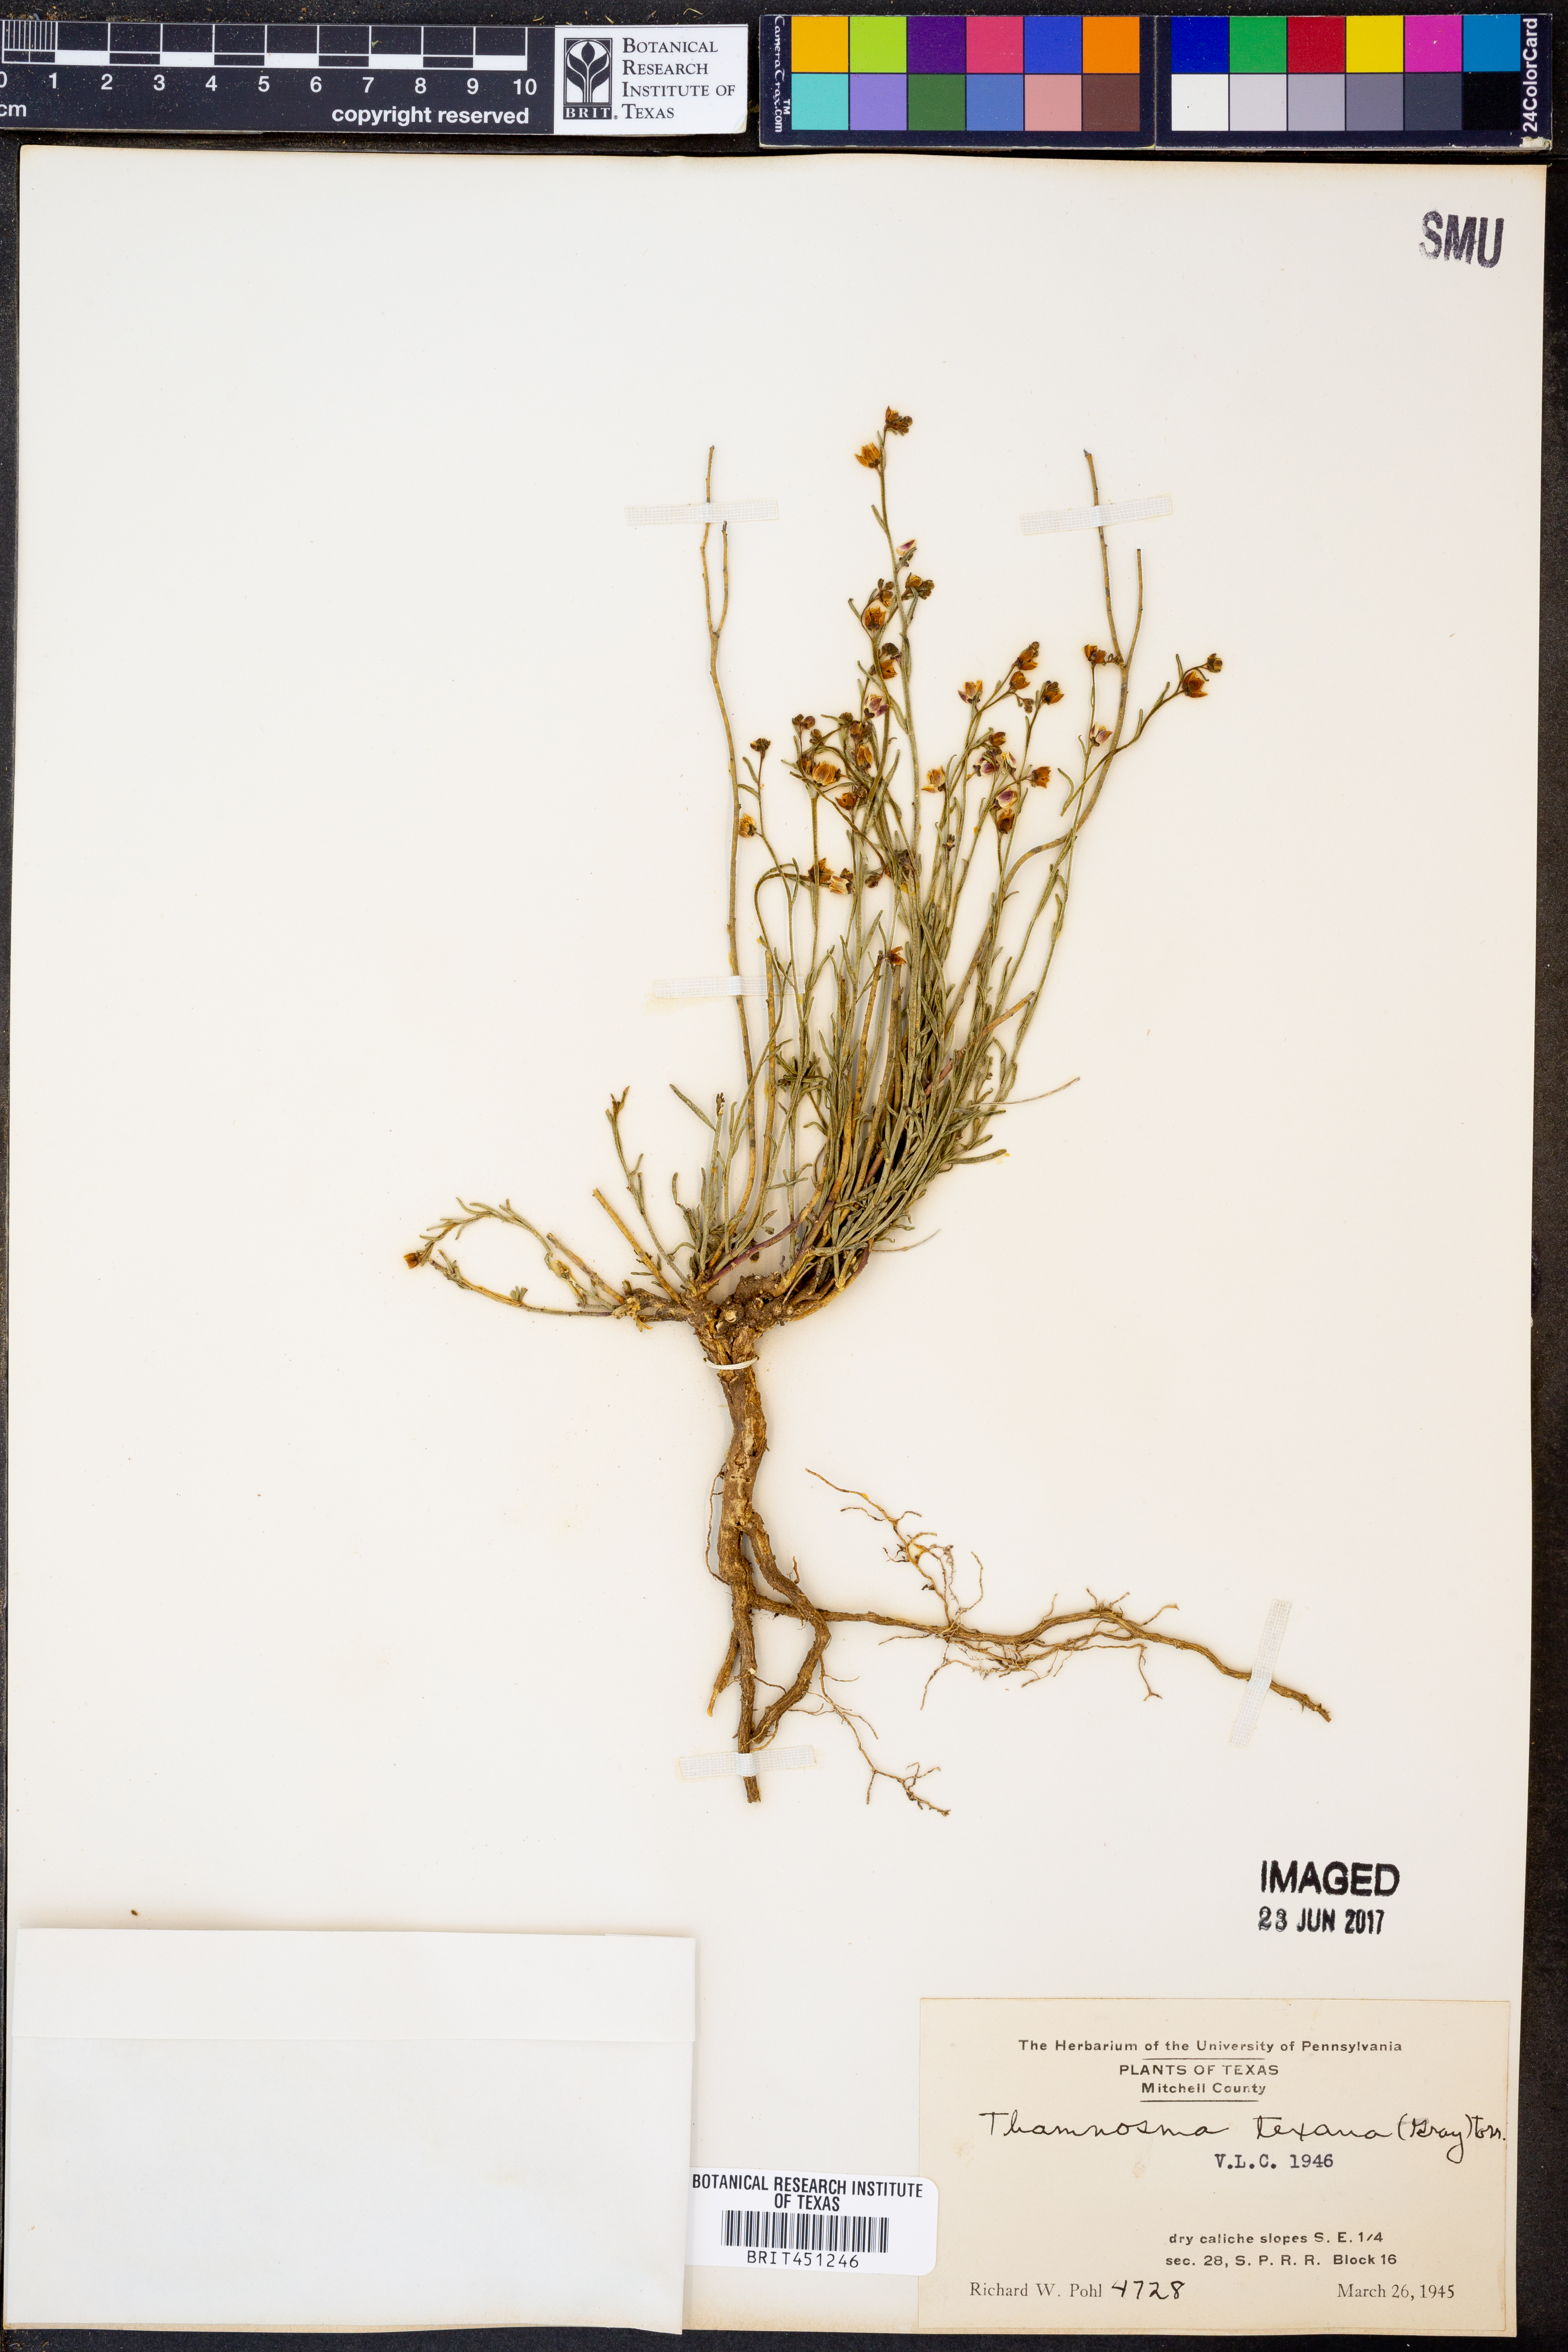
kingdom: Plantae
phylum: Tracheophyta
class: Magnoliopsida
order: Sapindales
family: Rutaceae
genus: Thamnosma
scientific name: Thamnosma texana
